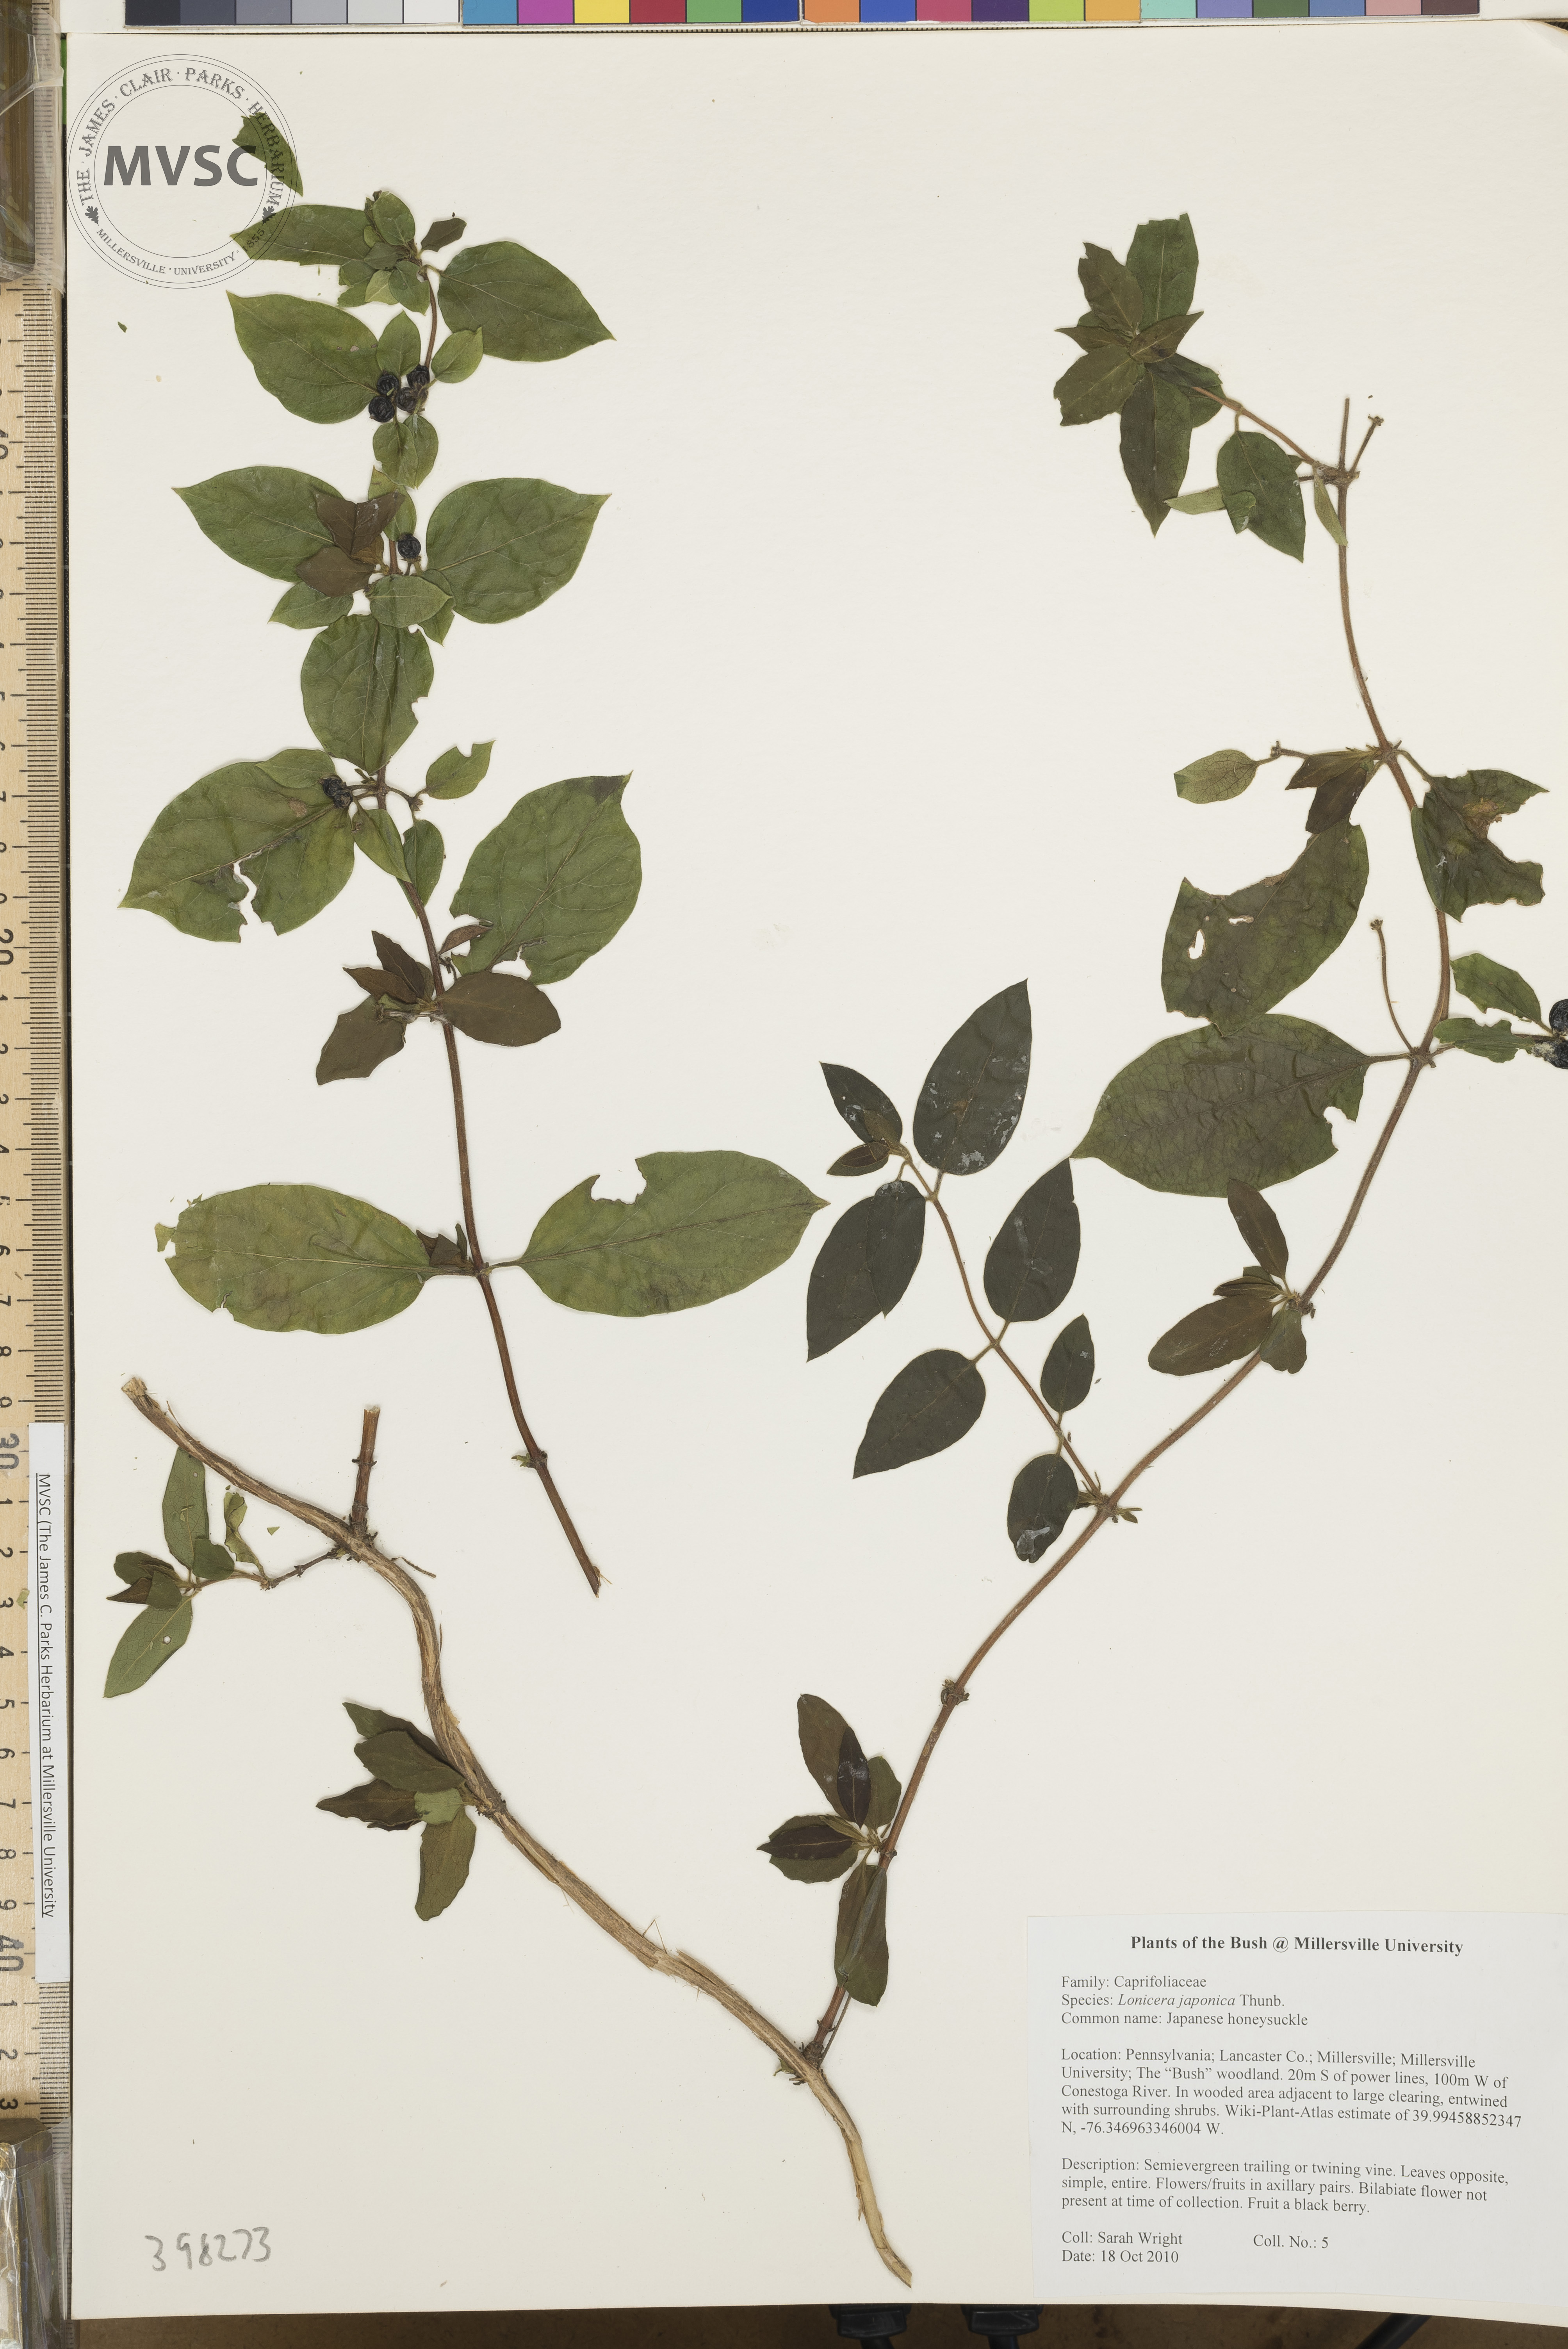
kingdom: Plantae
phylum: Tracheophyta
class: Magnoliopsida
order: Dipsacales
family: Caprifoliaceae
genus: Lonicera
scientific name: Lonicera japonica
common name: Japanese honeysuckle
